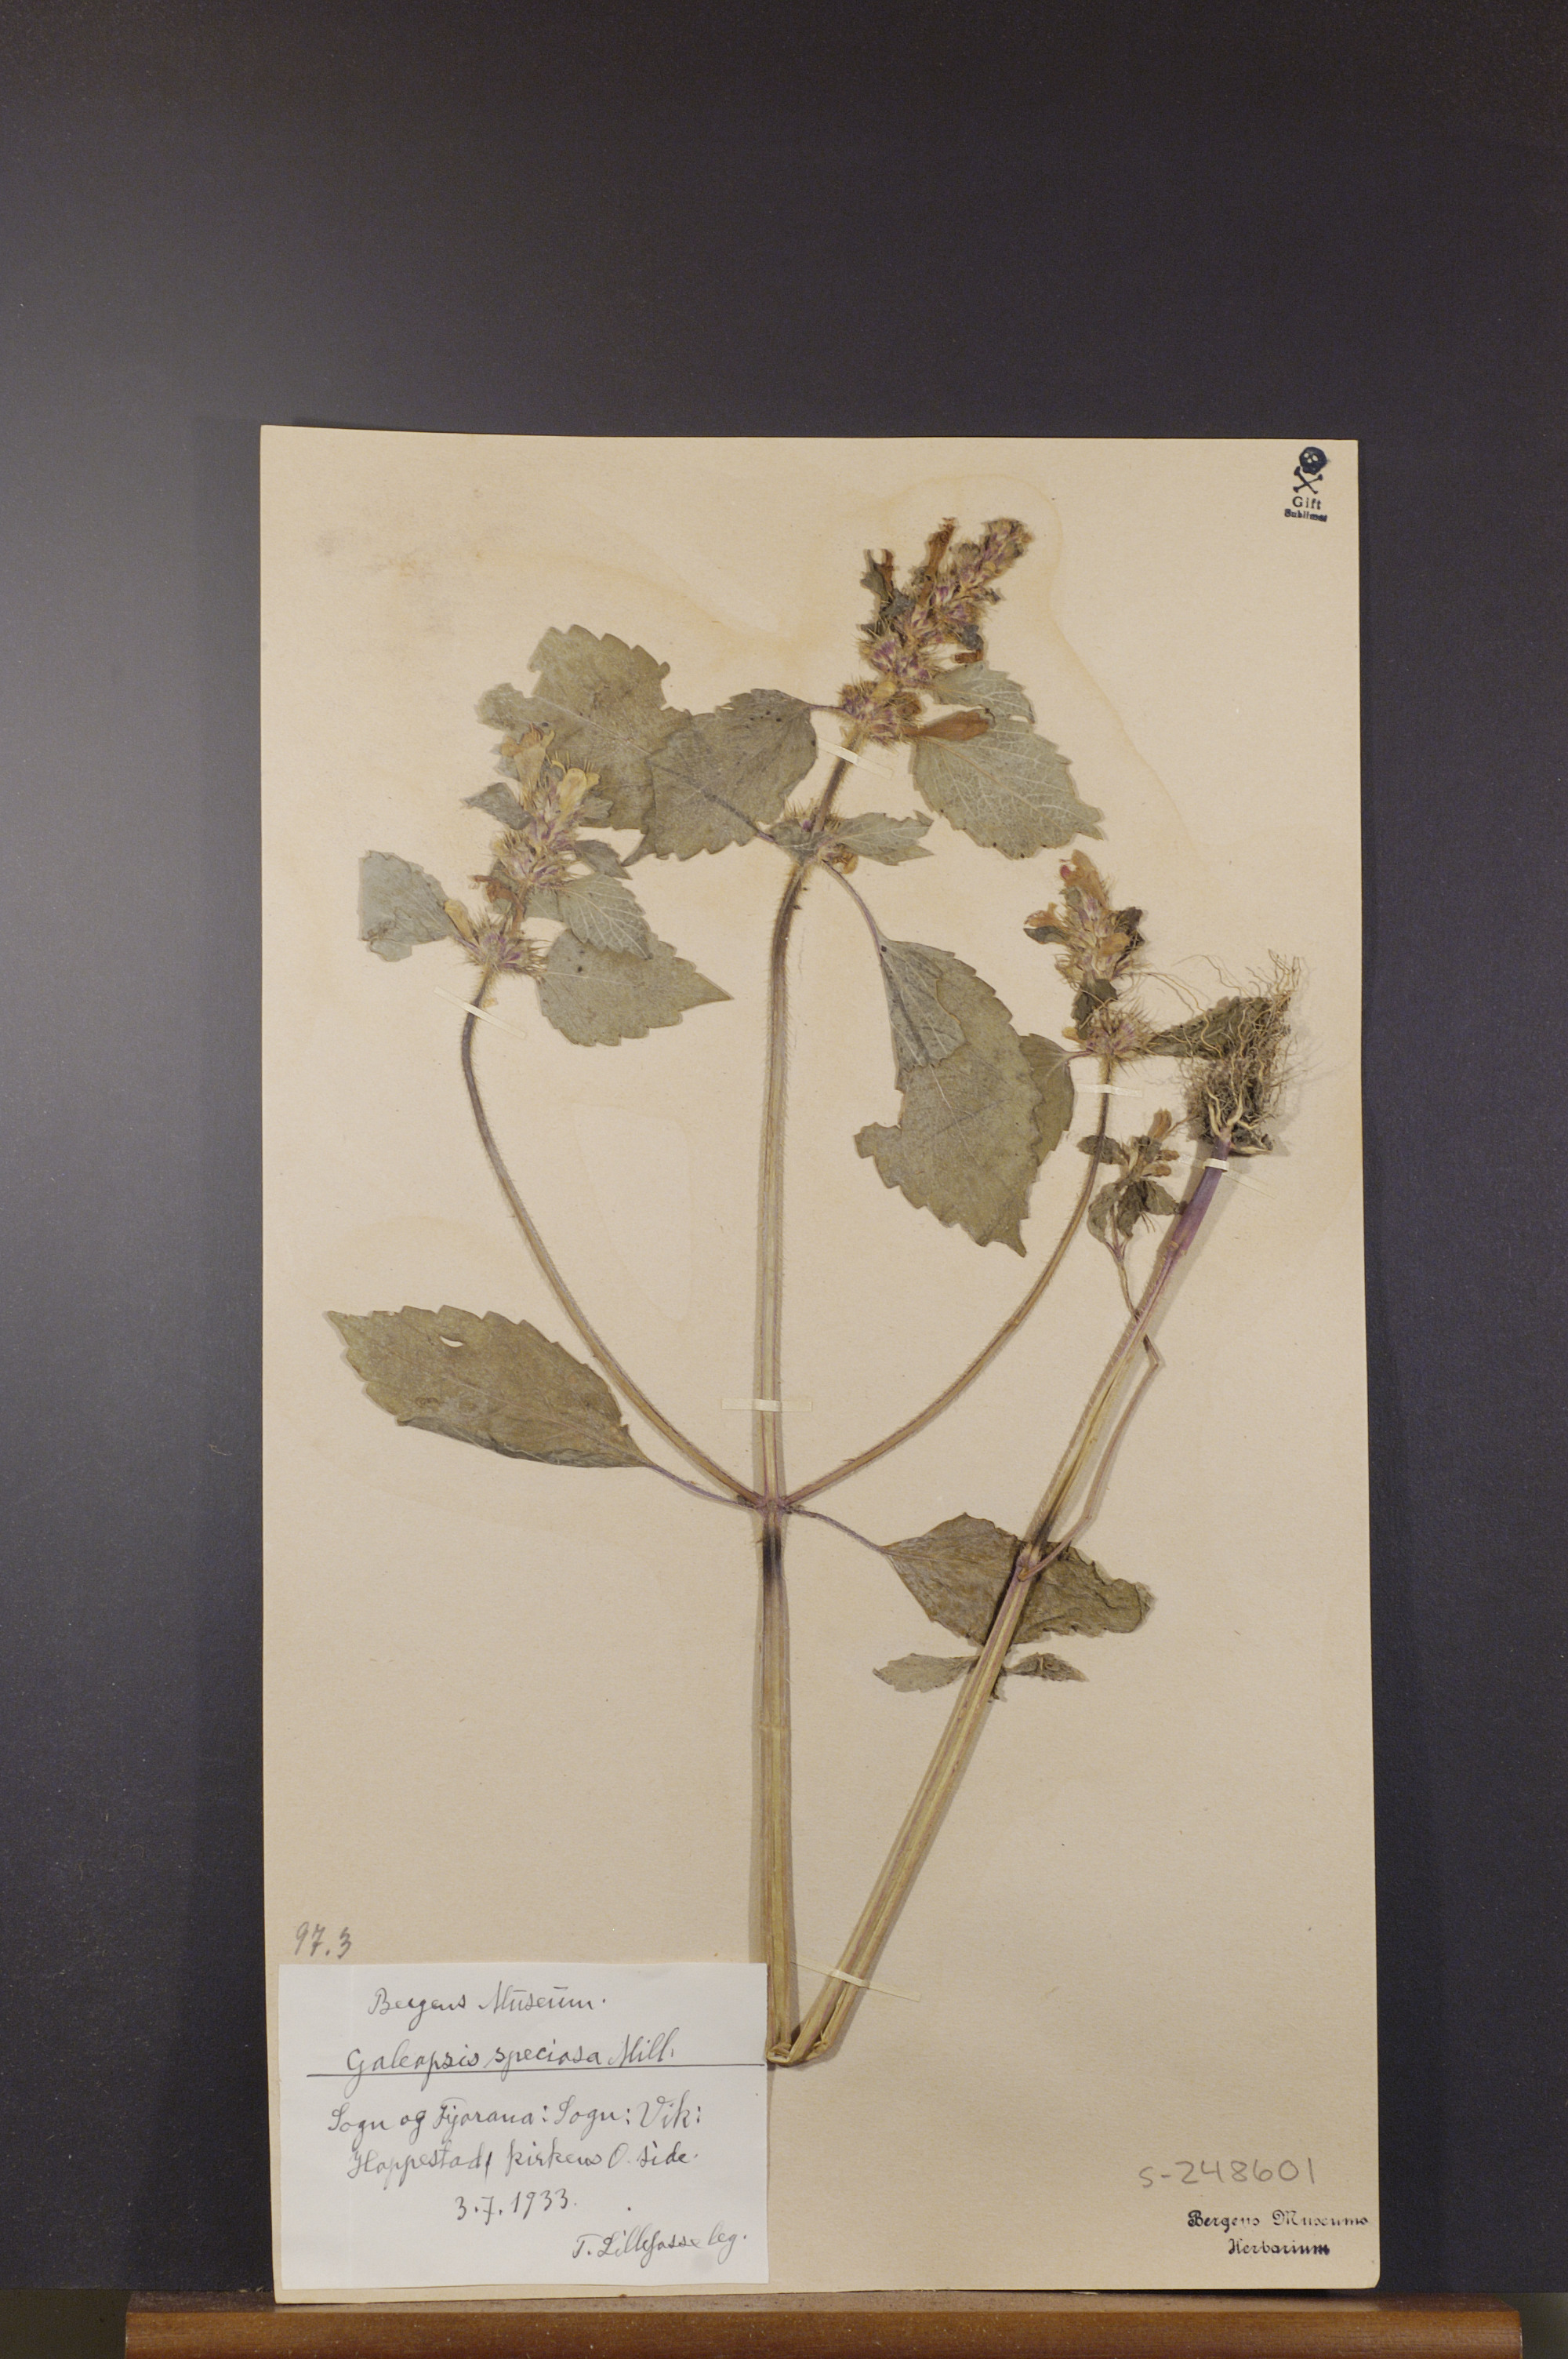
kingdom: Plantae
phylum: Tracheophyta
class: Magnoliopsida
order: Lamiales
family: Lamiaceae
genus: Galeopsis
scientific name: Galeopsis speciosa
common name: Large-flowered hemp-nettle
